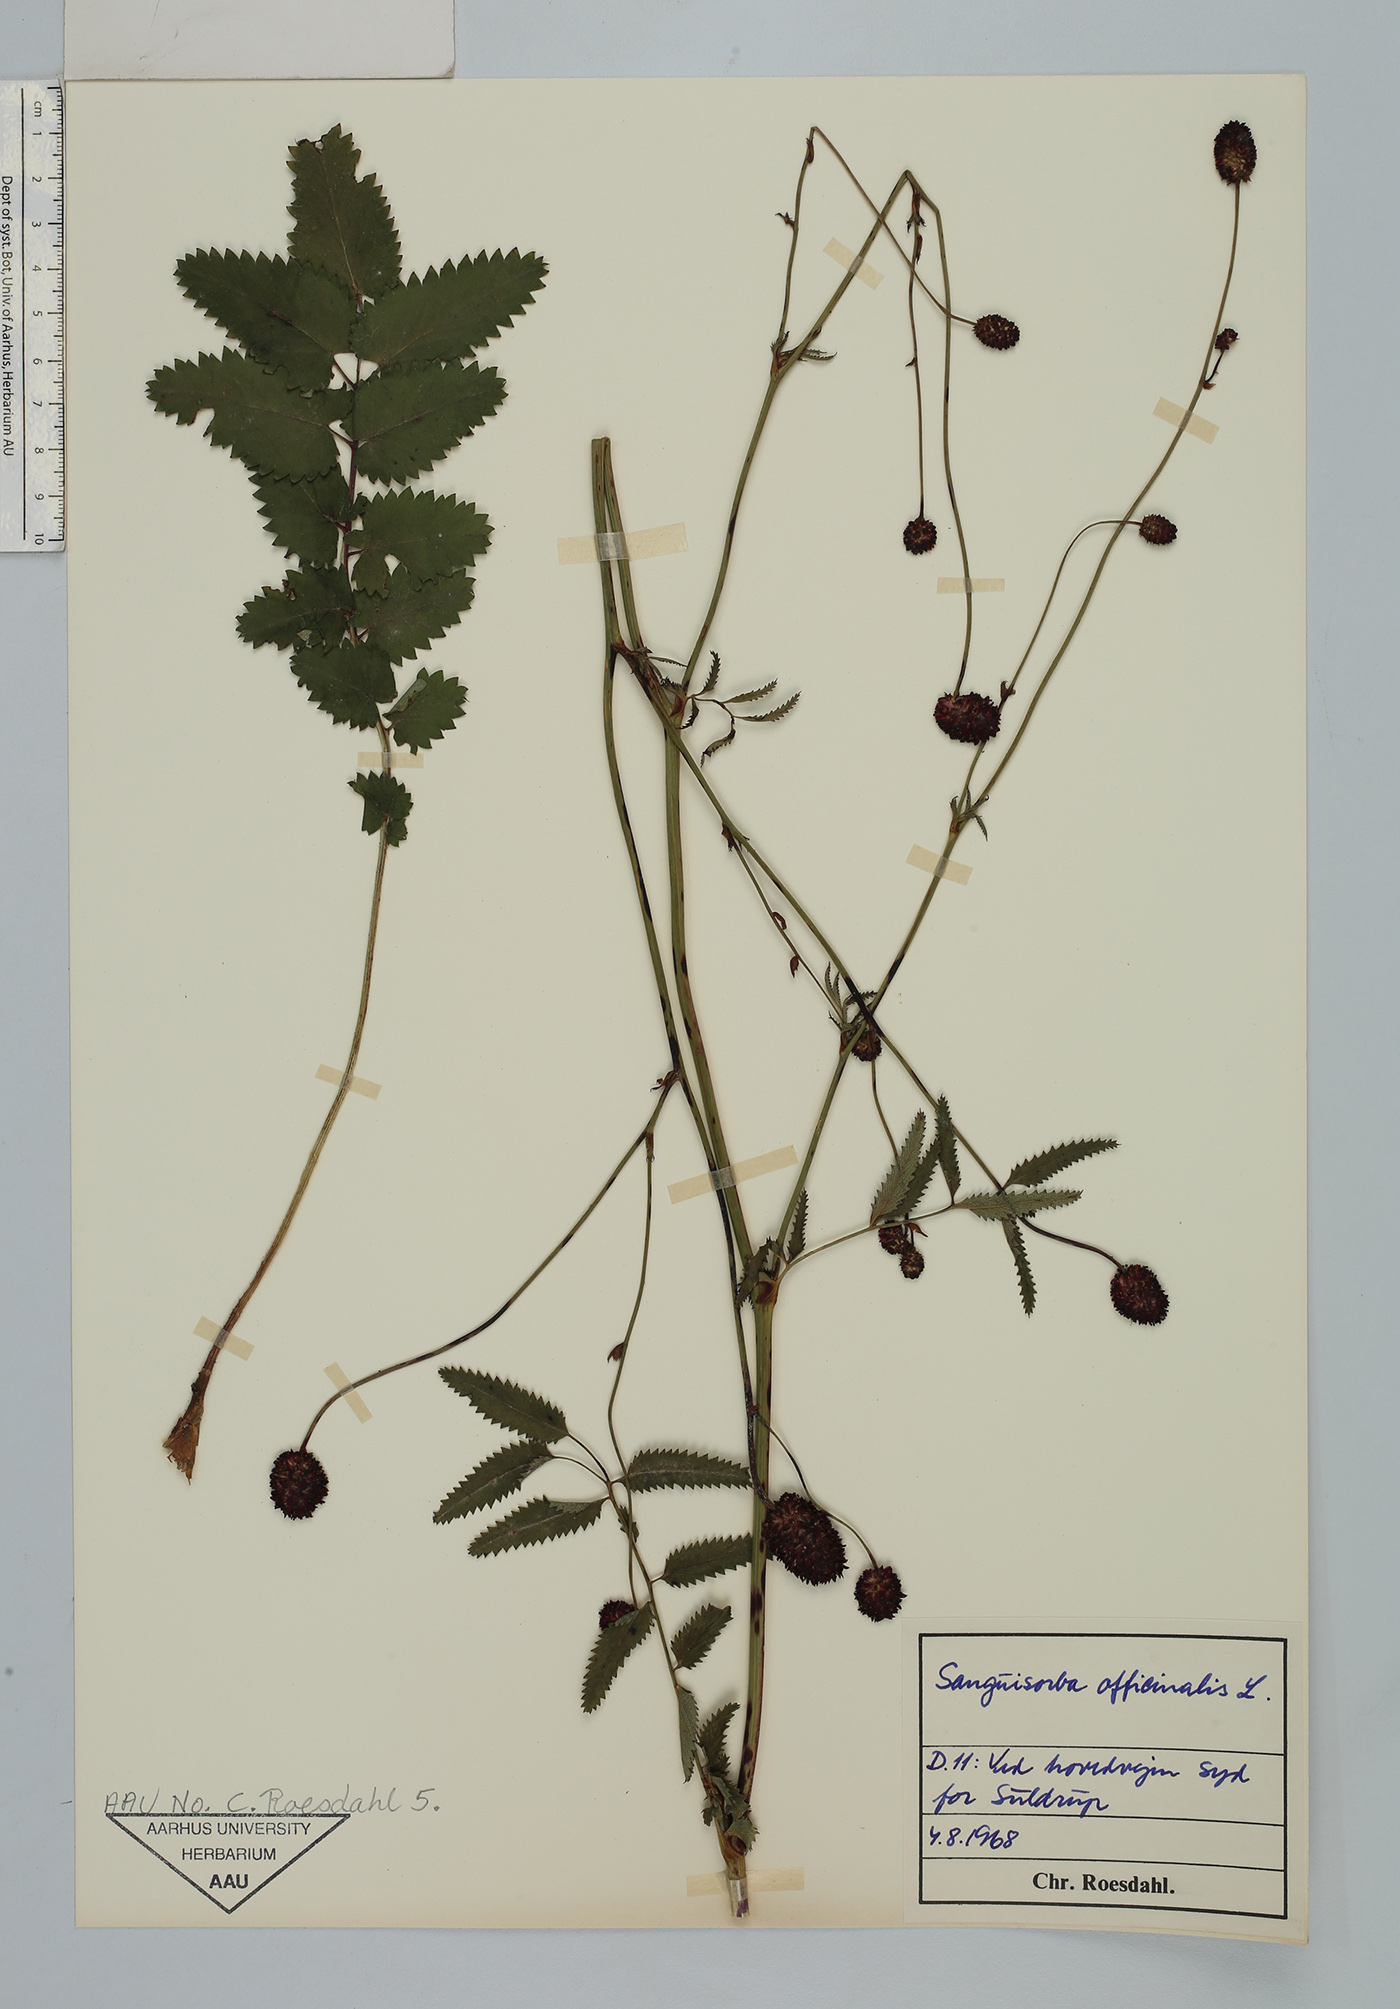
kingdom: Plantae
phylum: Tracheophyta
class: Magnoliopsida
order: Rosales
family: Rosaceae
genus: Sanguisorba
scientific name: Sanguisorba officinalis
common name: Great burnet
